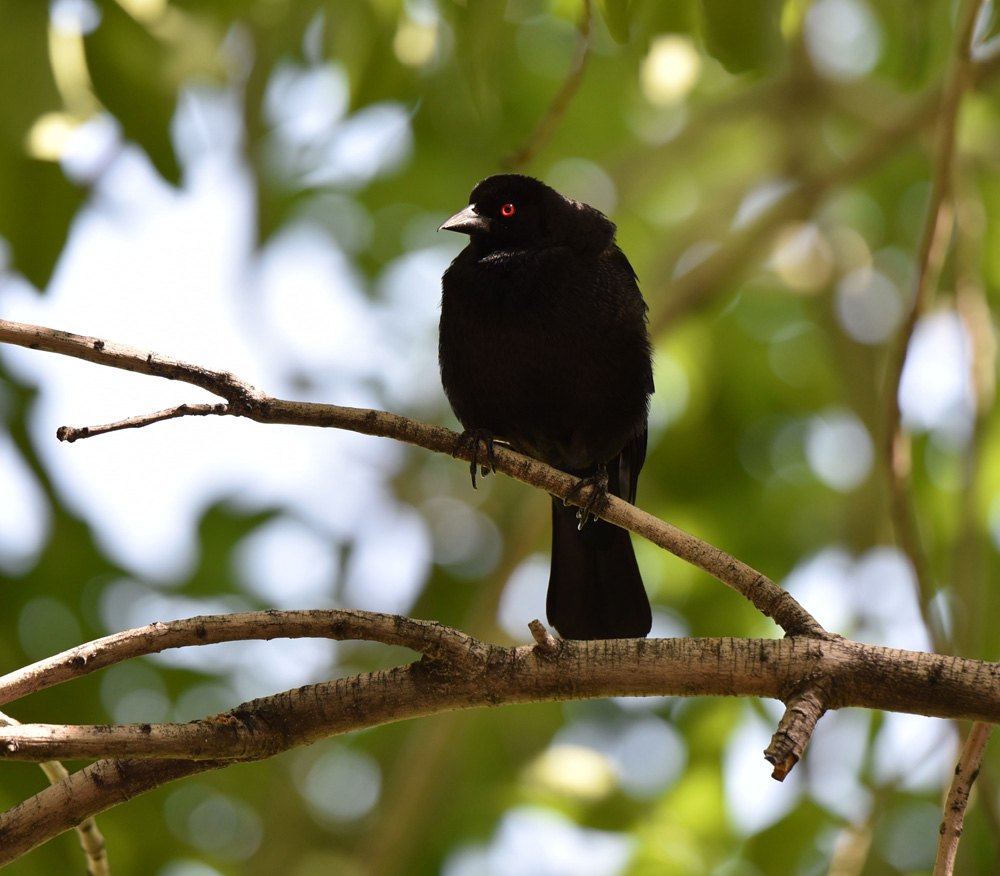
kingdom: Animalia
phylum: Chordata
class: Aves
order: Passeriformes
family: Icteridae
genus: Molothrus
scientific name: Molothrus aeneus
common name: Bronzed cowbird
